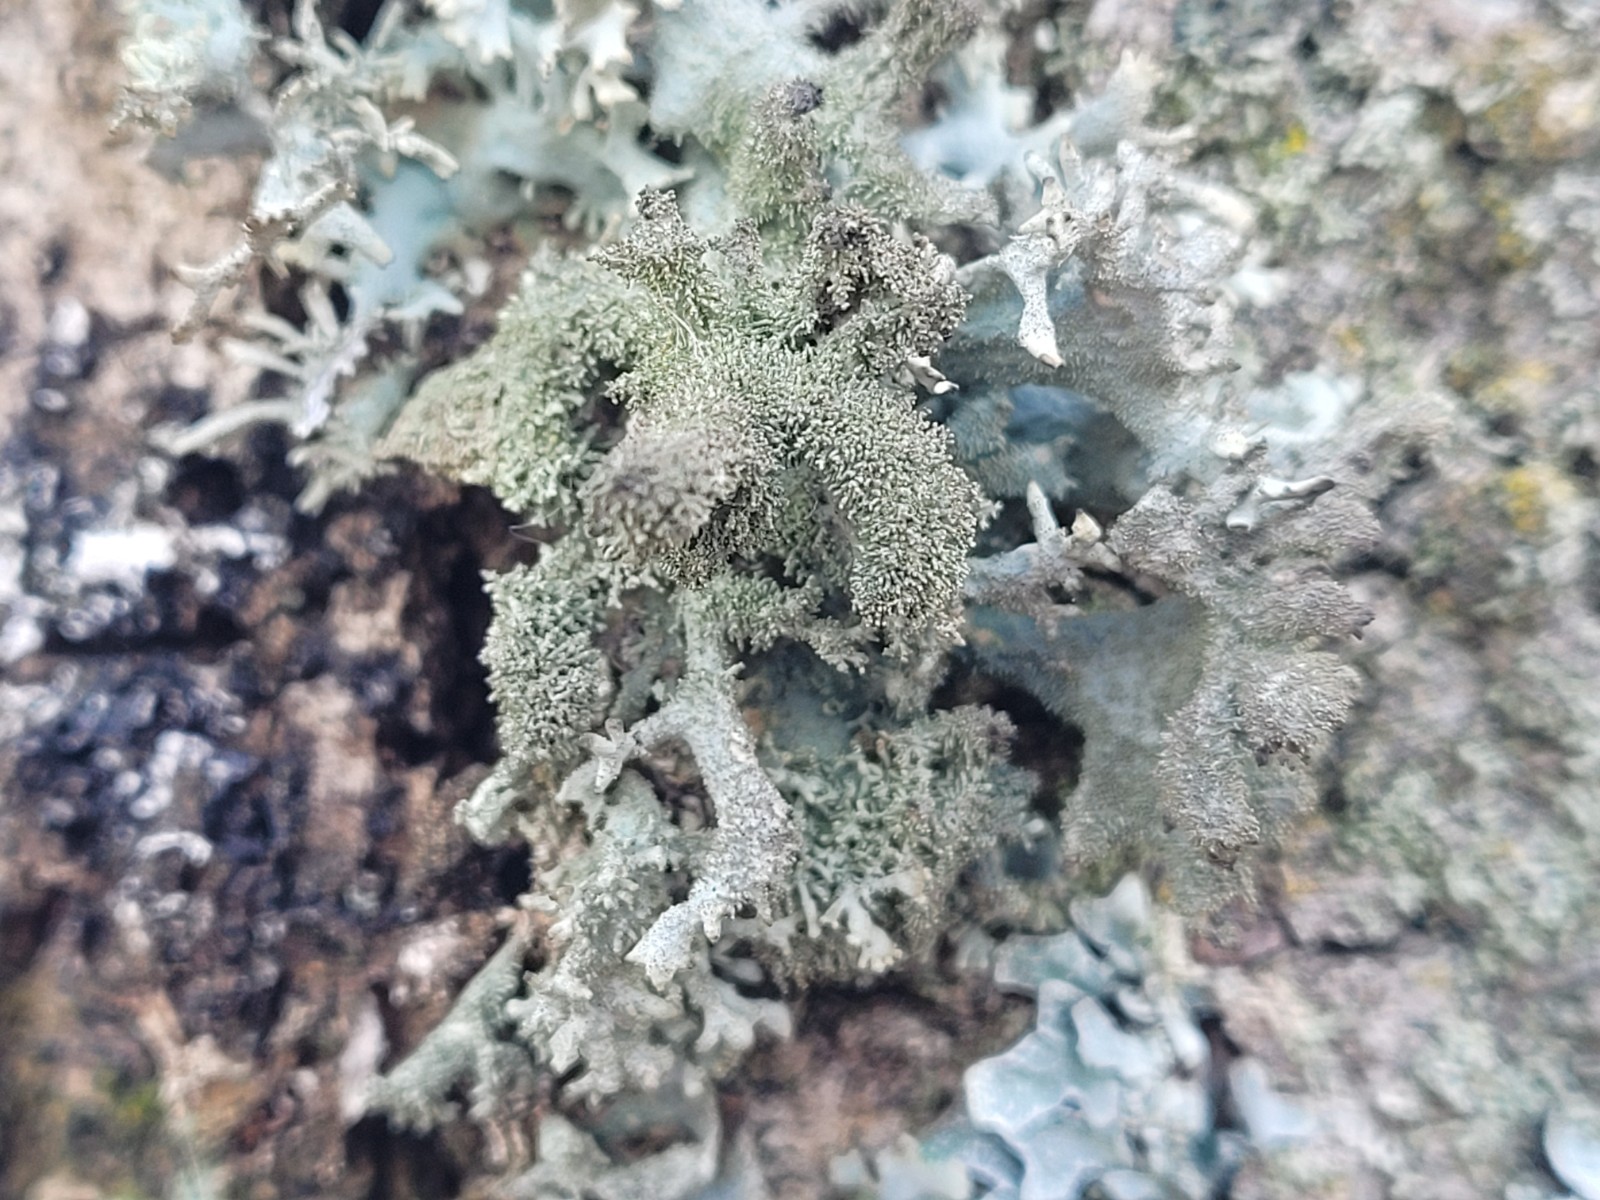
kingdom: Fungi
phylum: Ascomycota
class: Lecanoromycetes
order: Lecanorales
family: Parmeliaceae
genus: Pseudevernia
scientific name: Pseudevernia furfuracea
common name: grå fyrrelav
